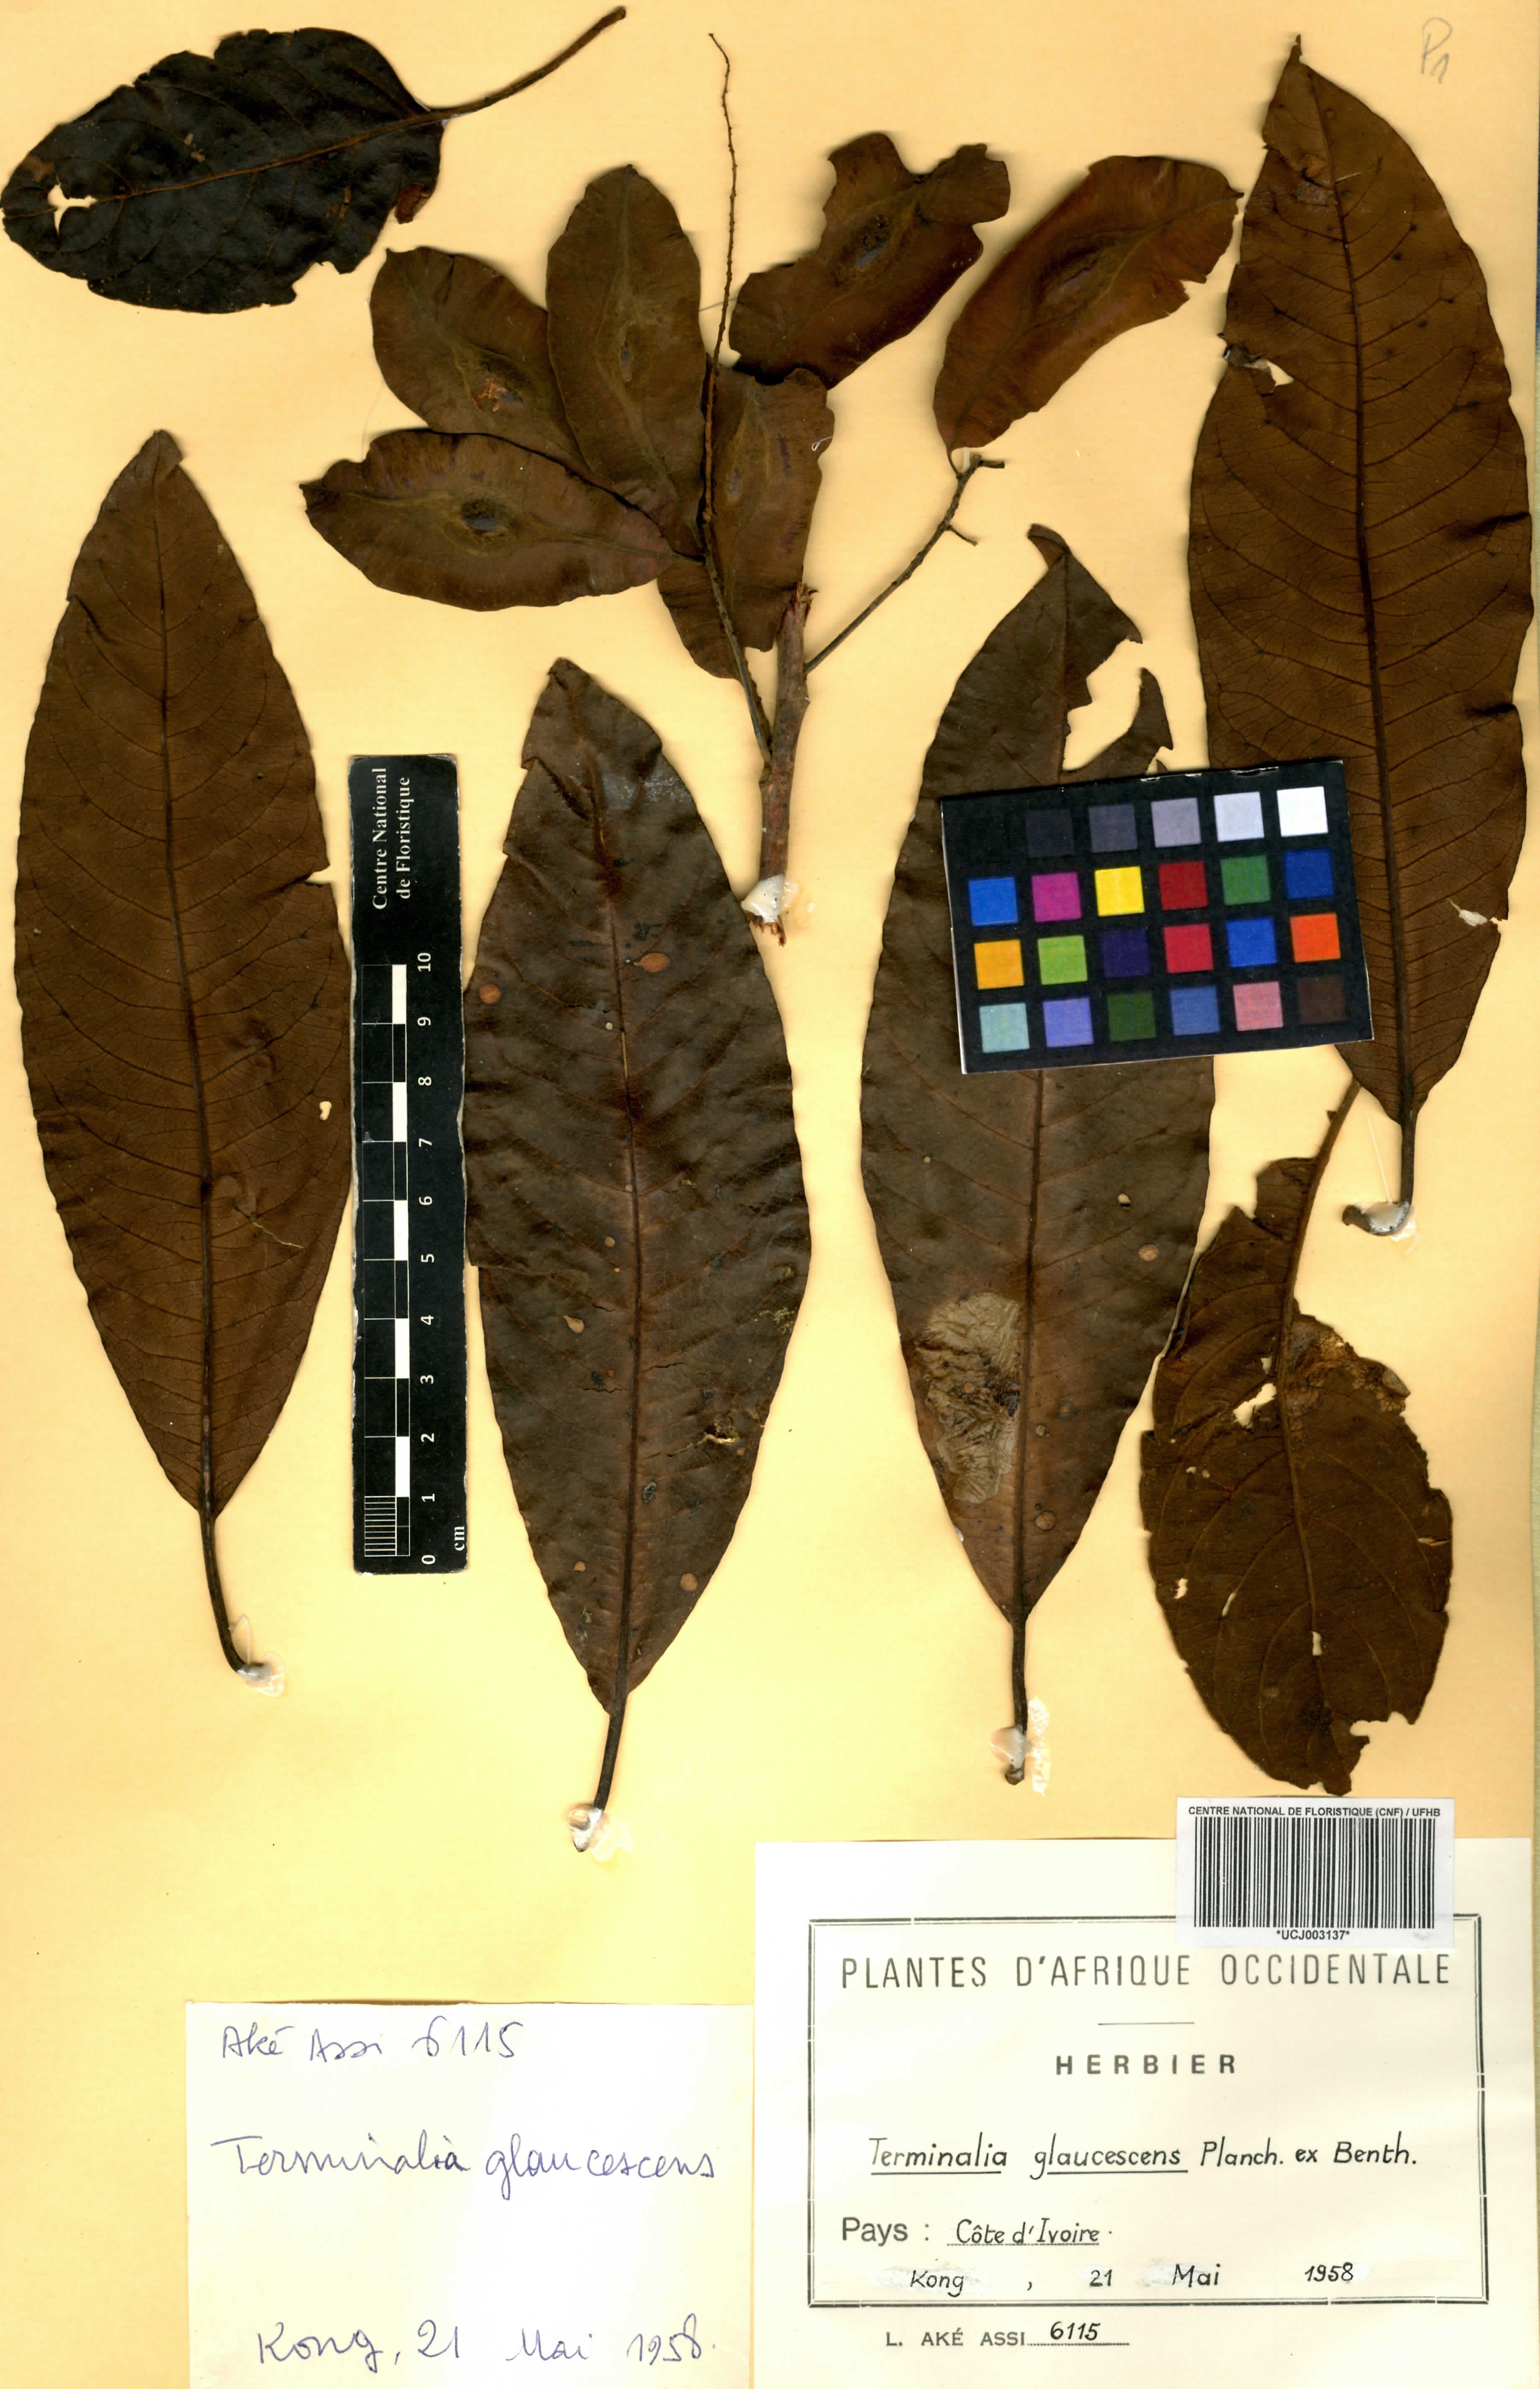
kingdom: Plantae
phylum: Tracheophyta
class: Magnoliopsida
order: Myrtales
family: Combretaceae
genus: Terminalia
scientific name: Terminalia schimperiana
